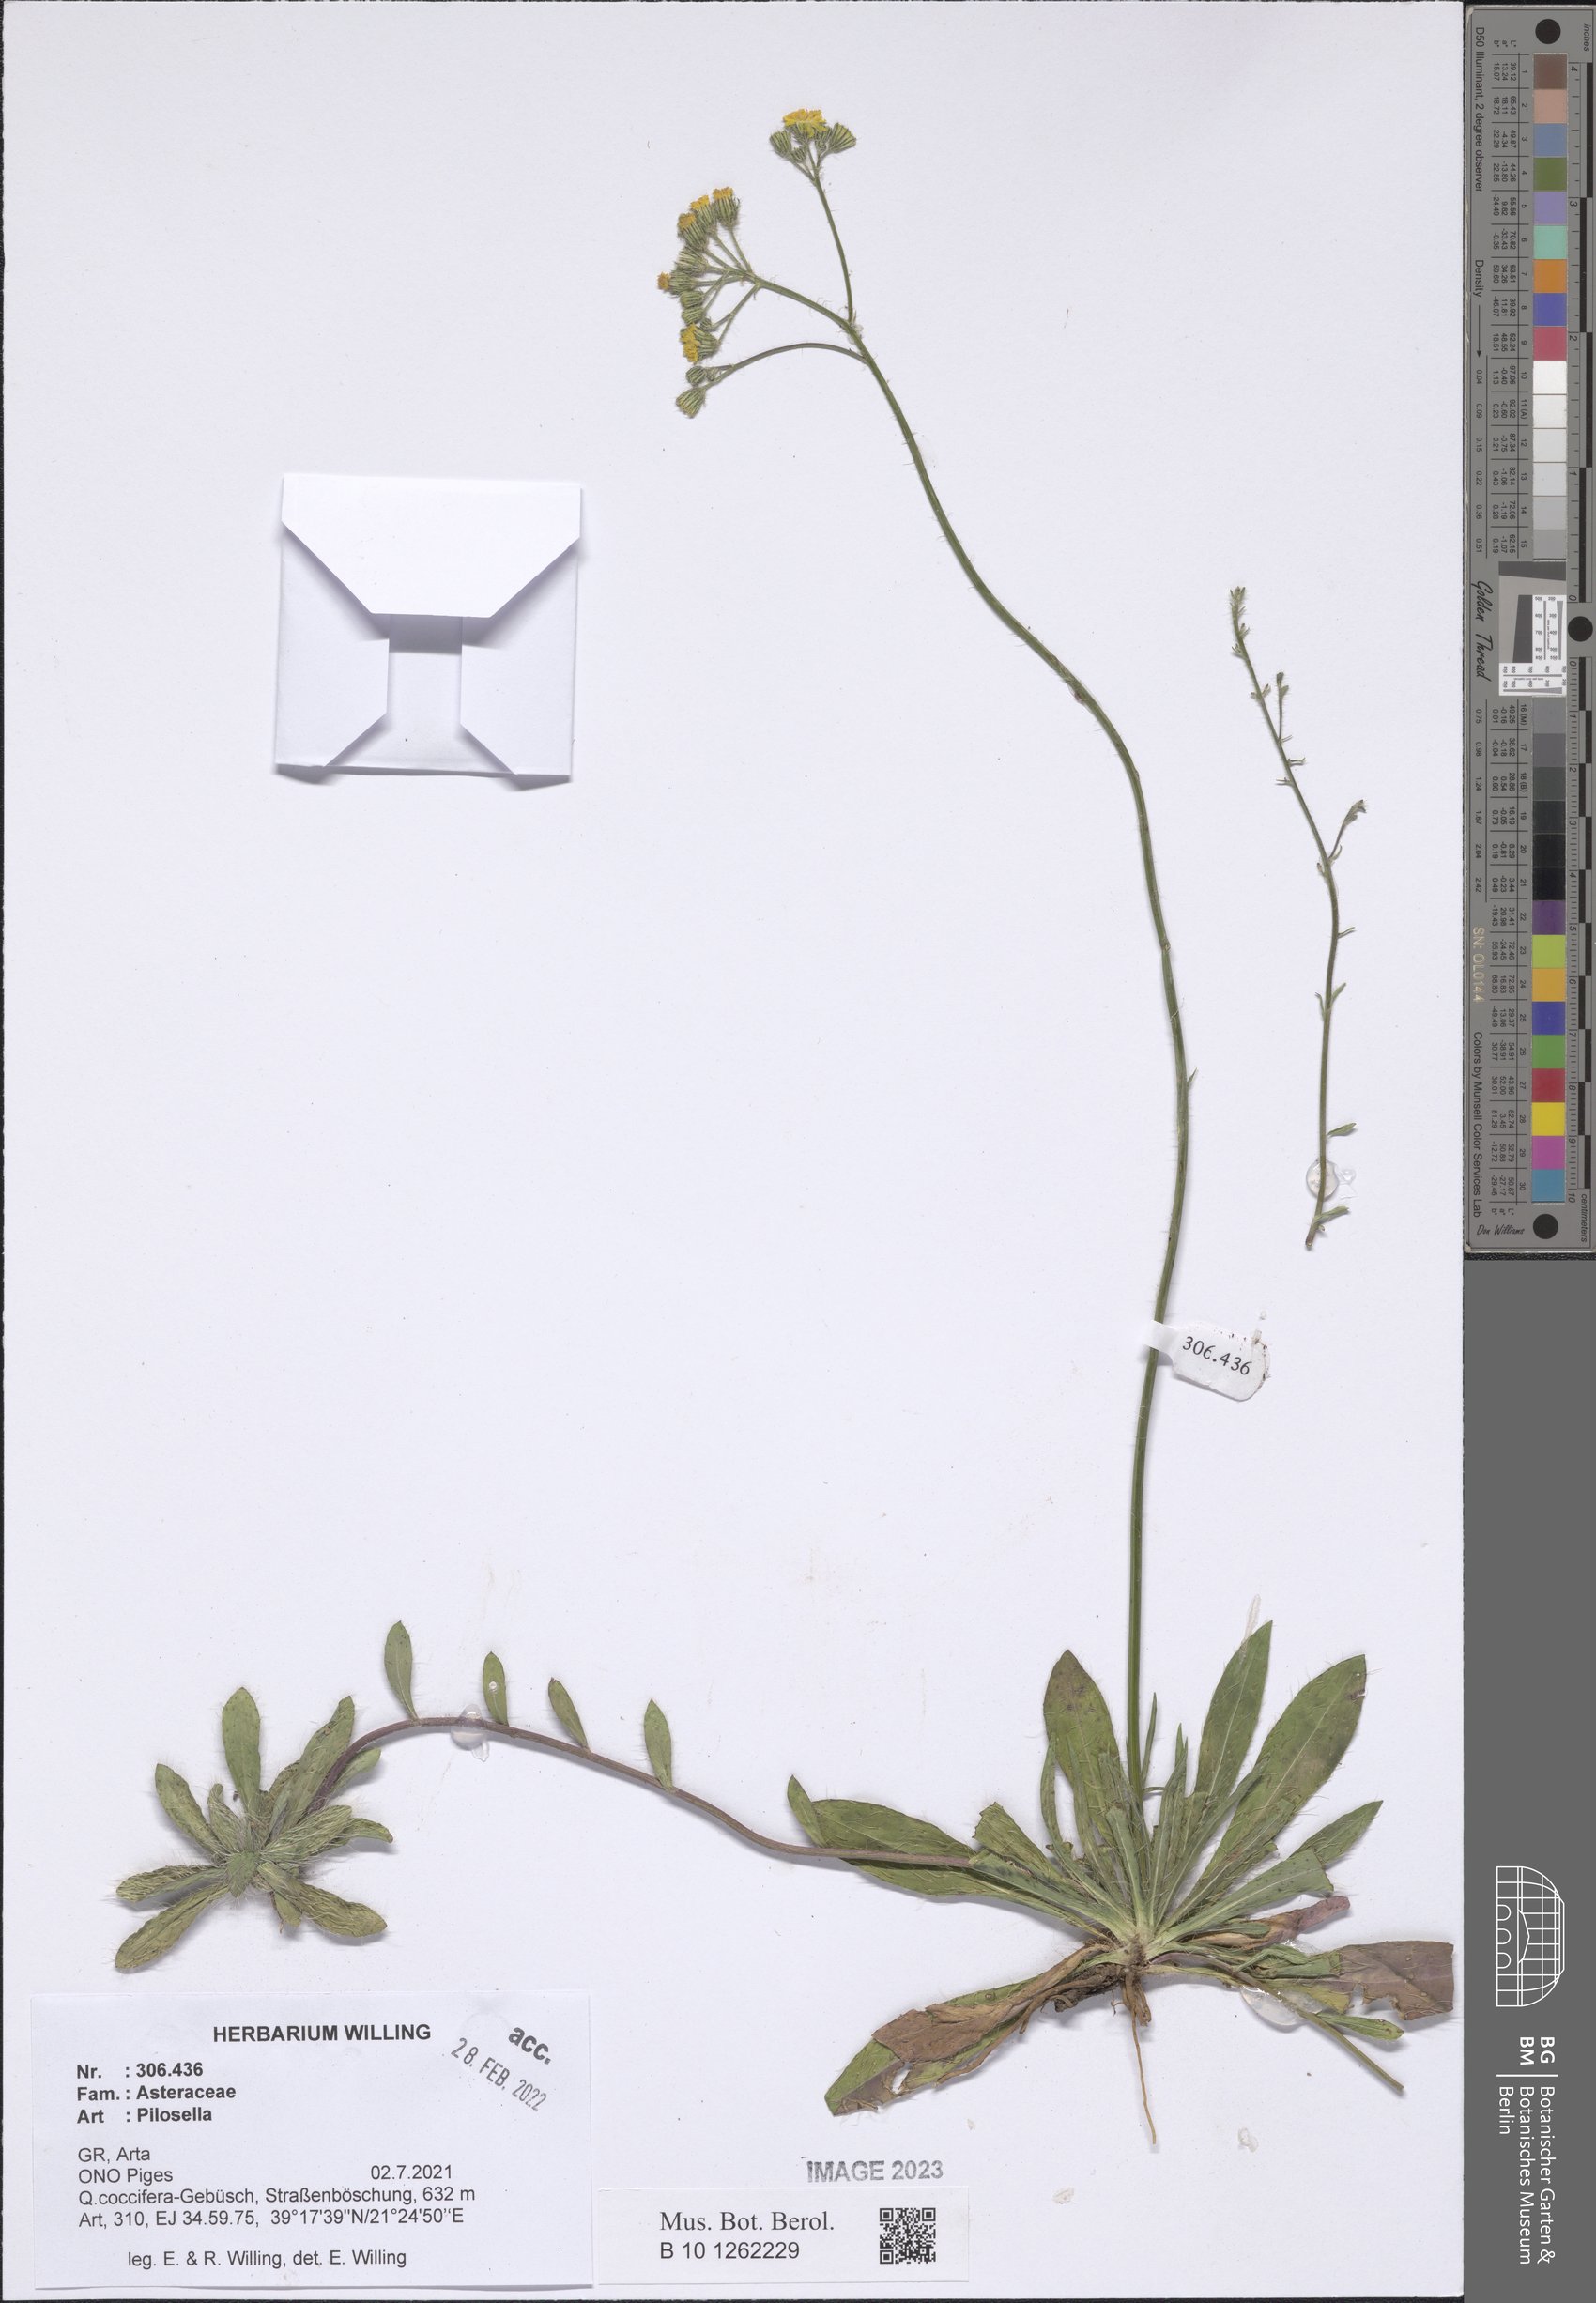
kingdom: Plantae
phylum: Tracheophyta
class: Magnoliopsida
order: Asterales
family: Asteraceae
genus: Pilosella
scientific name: Pilosella
